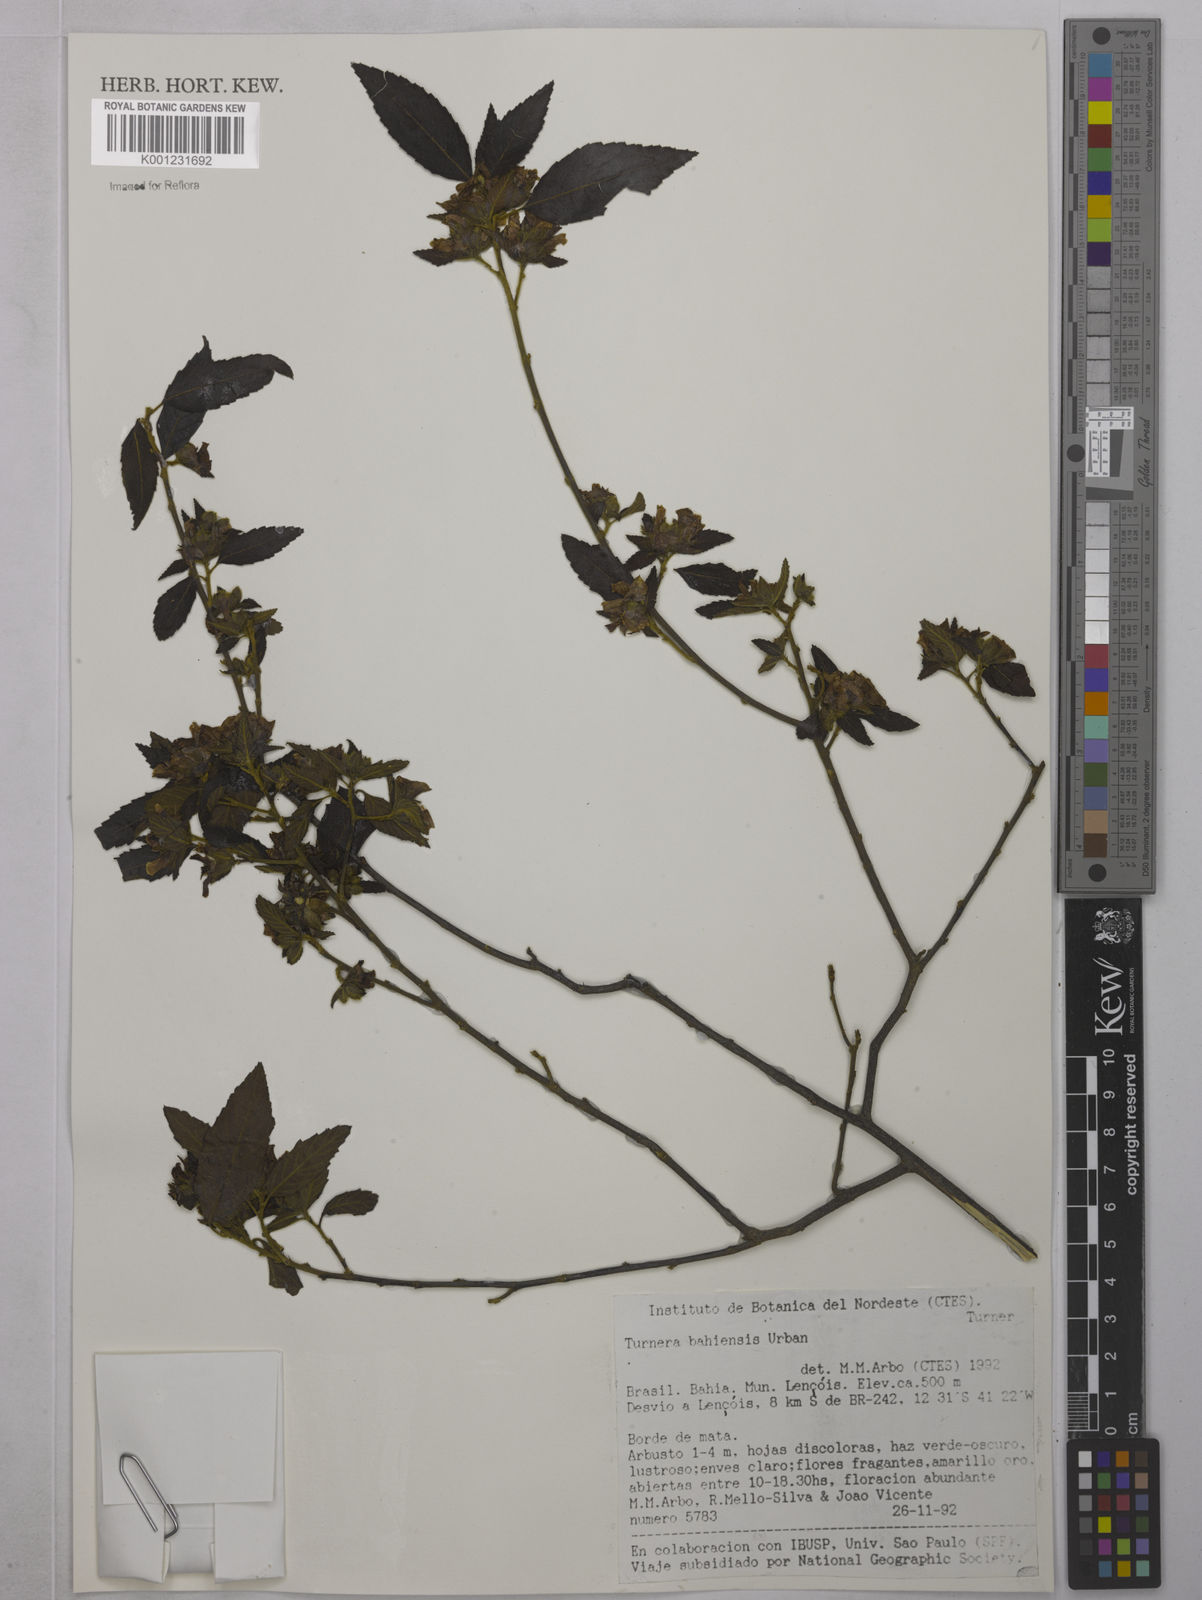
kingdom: Plantae
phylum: Tracheophyta
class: Magnoliopsida
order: Malpighiales
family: Turneraceae
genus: Turnera
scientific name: Turnera bahiensis
